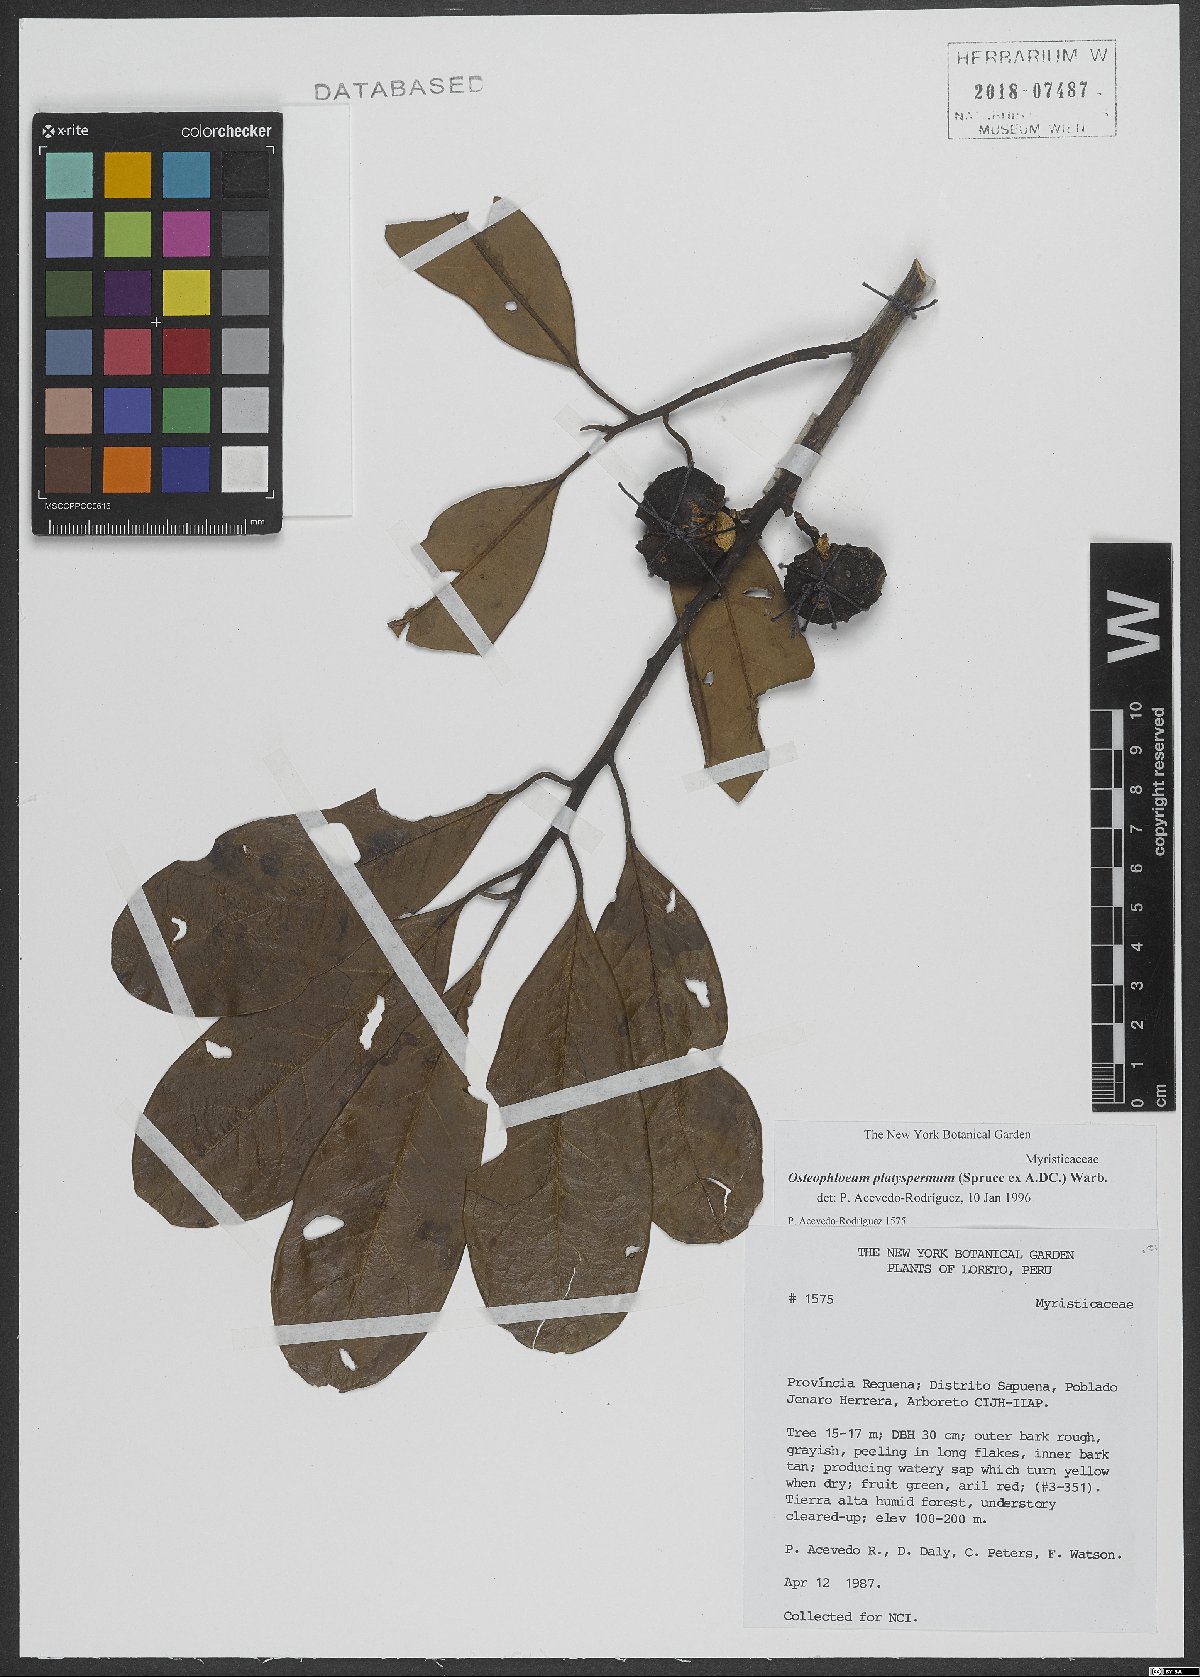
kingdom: Plantae
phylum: Tracheophyta
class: Magnoliopsida
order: Magnoliales
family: Myristicaceae
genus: Osteophloeum
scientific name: Osteophloeum platyspermum
